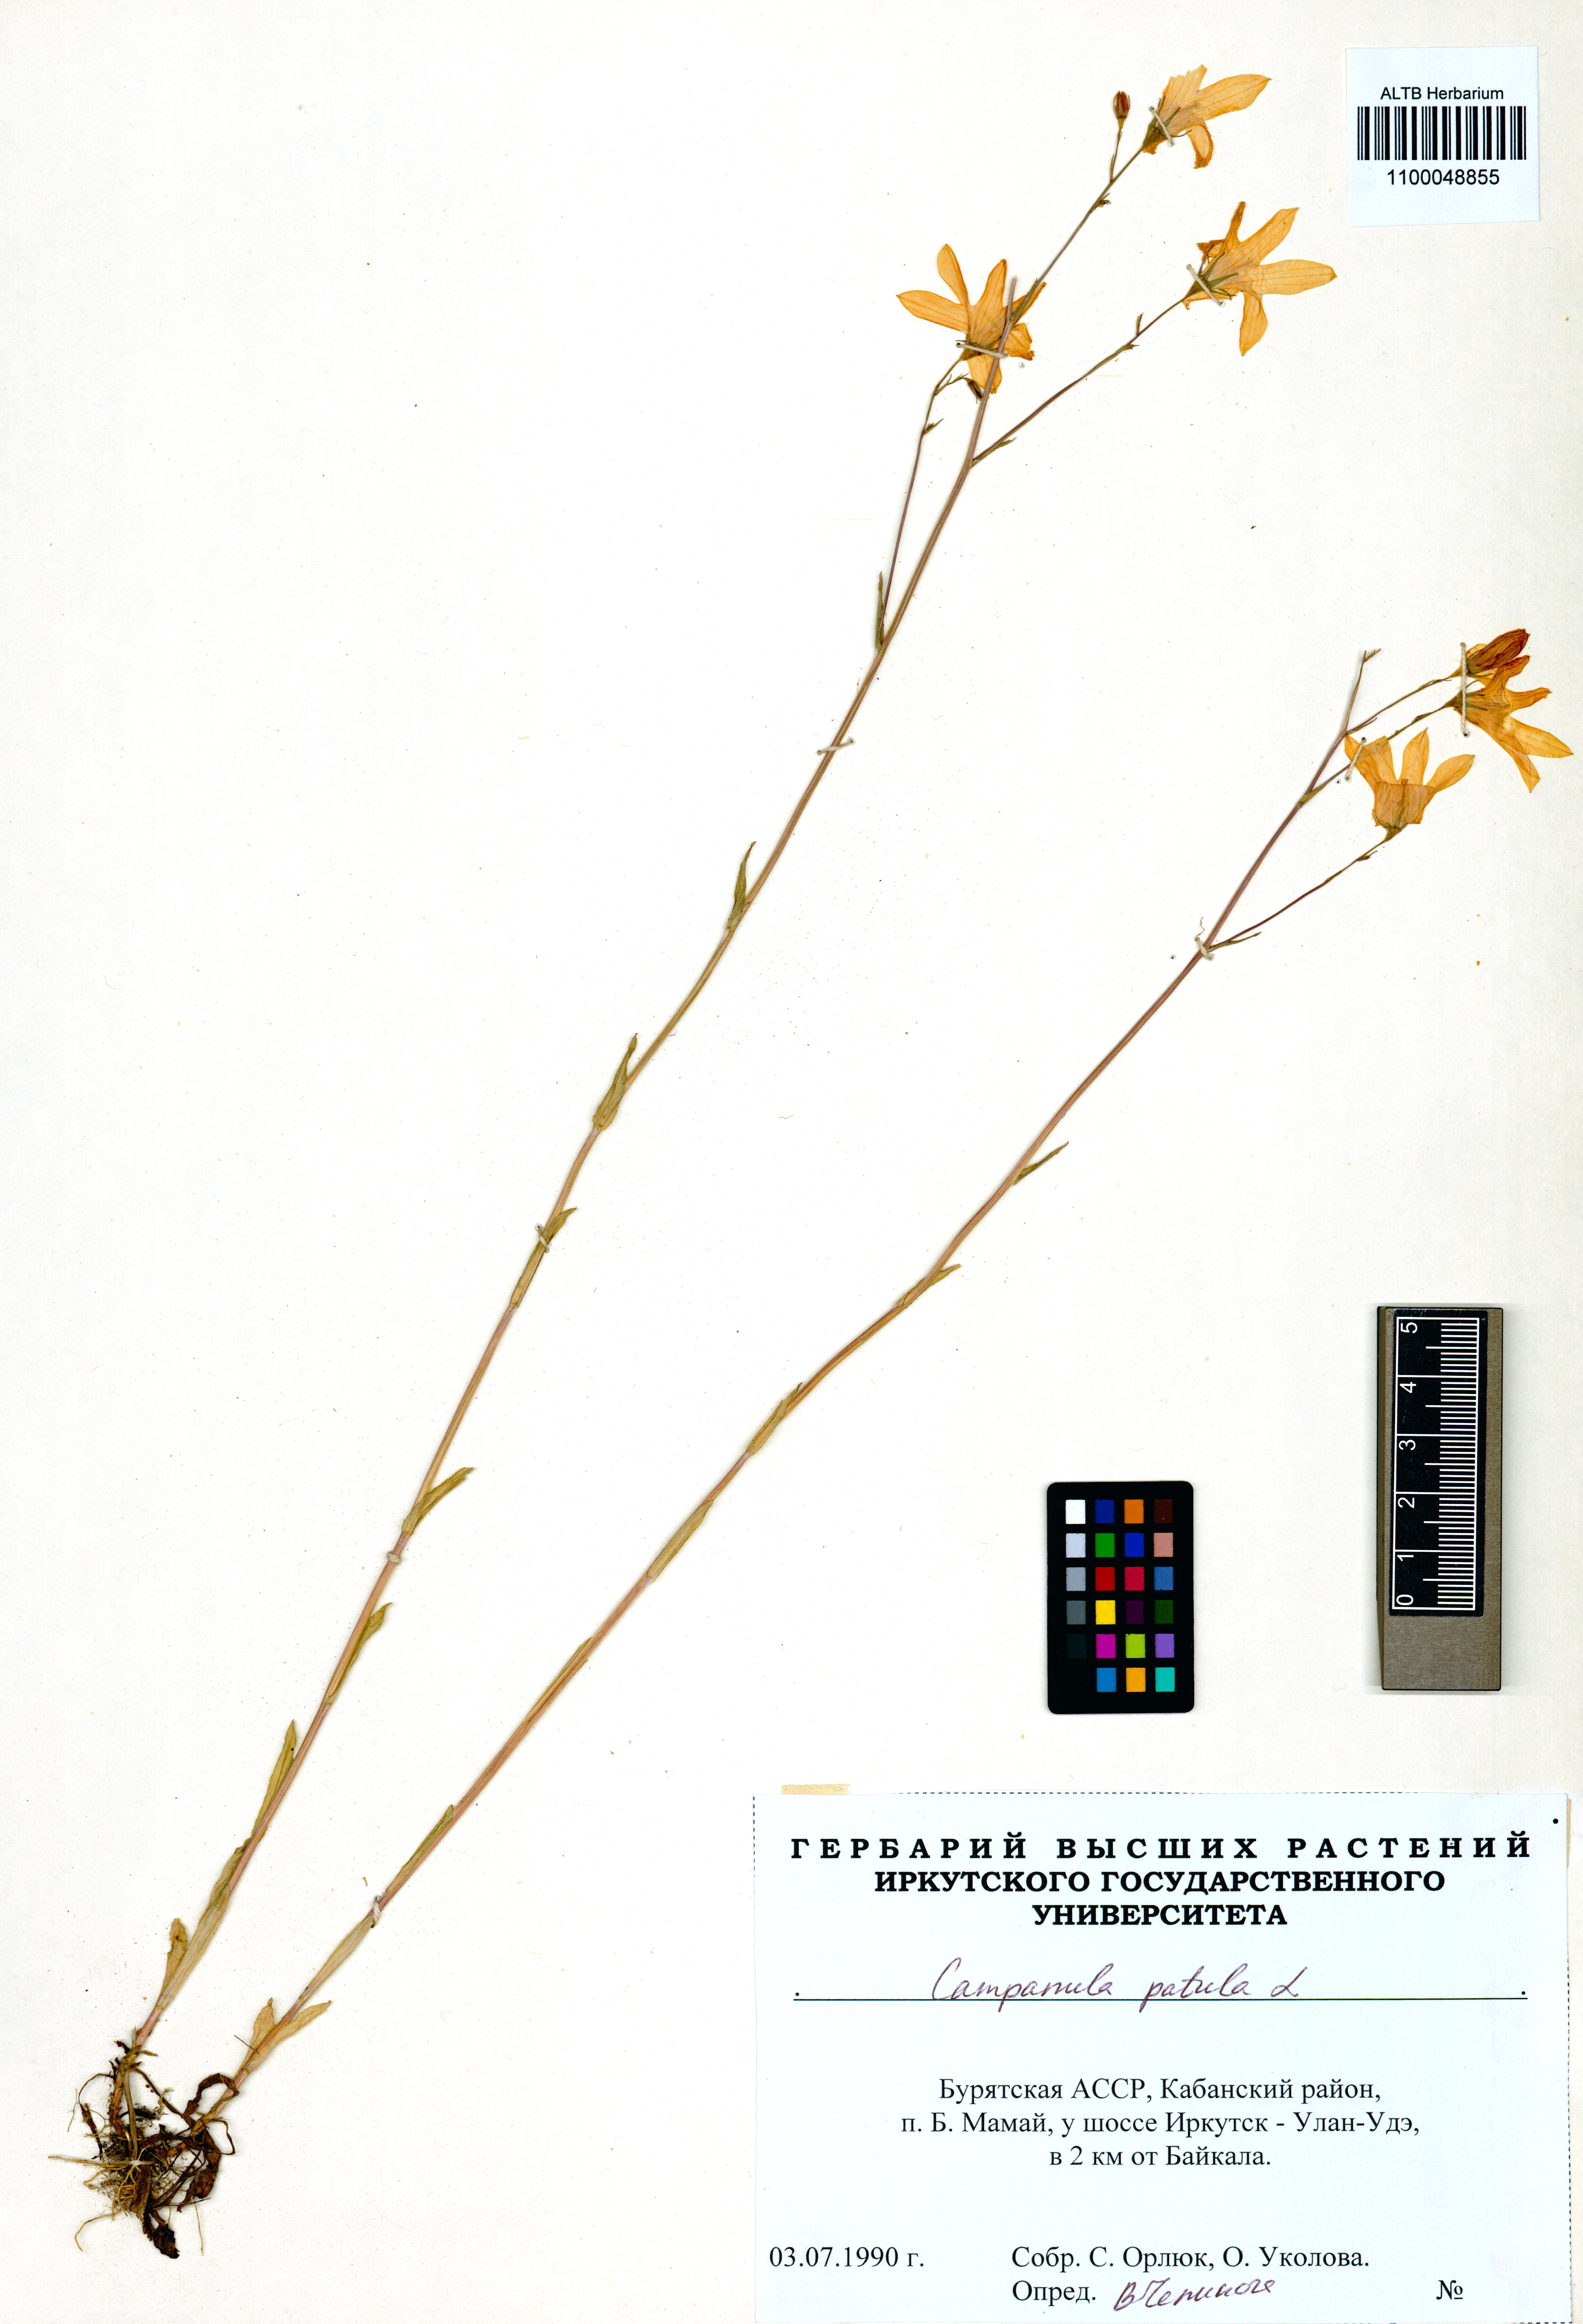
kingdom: Plantae
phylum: Tracheophyta
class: Magnoliopsida
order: Asterales
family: Campanulaceae
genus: Campanula
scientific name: Campanula patula
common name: Spreading bellflower
